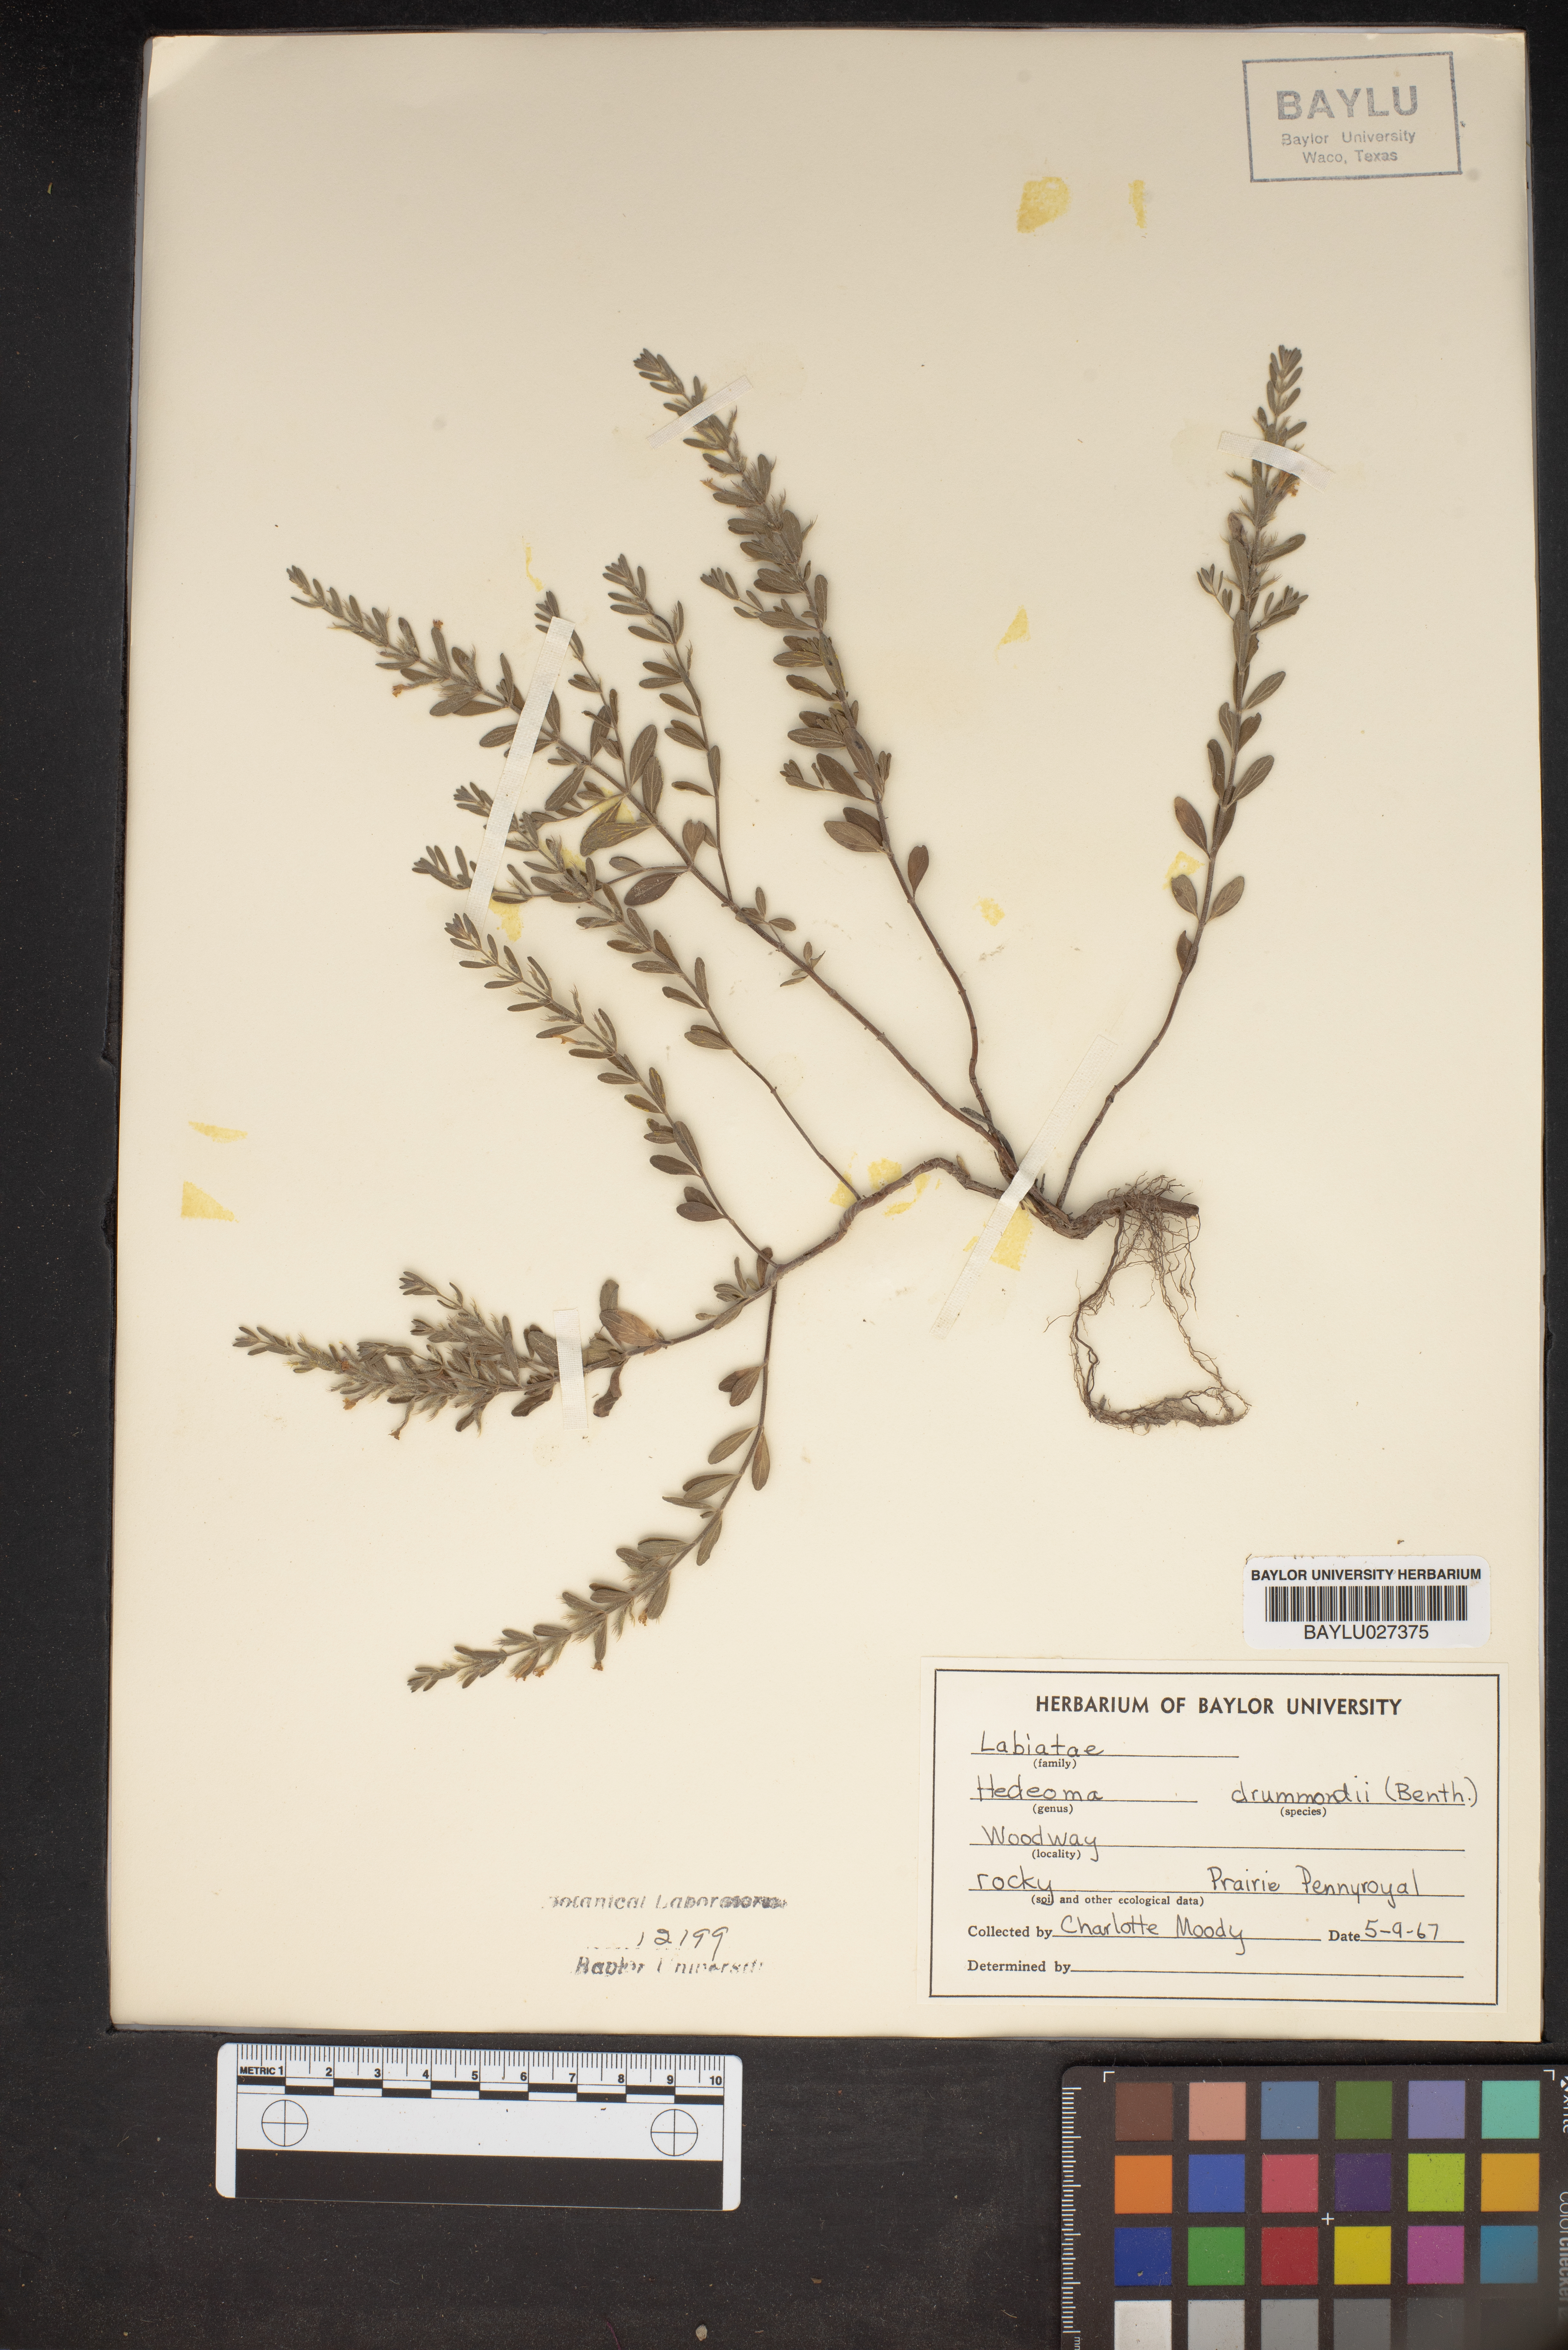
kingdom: Plantae
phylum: Tracheophyta
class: Magnoliopsida
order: Lamiales
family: Lamiaceae
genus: Hedeoma
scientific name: Hedeoma drummondii
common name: New mexico pennyroyal
